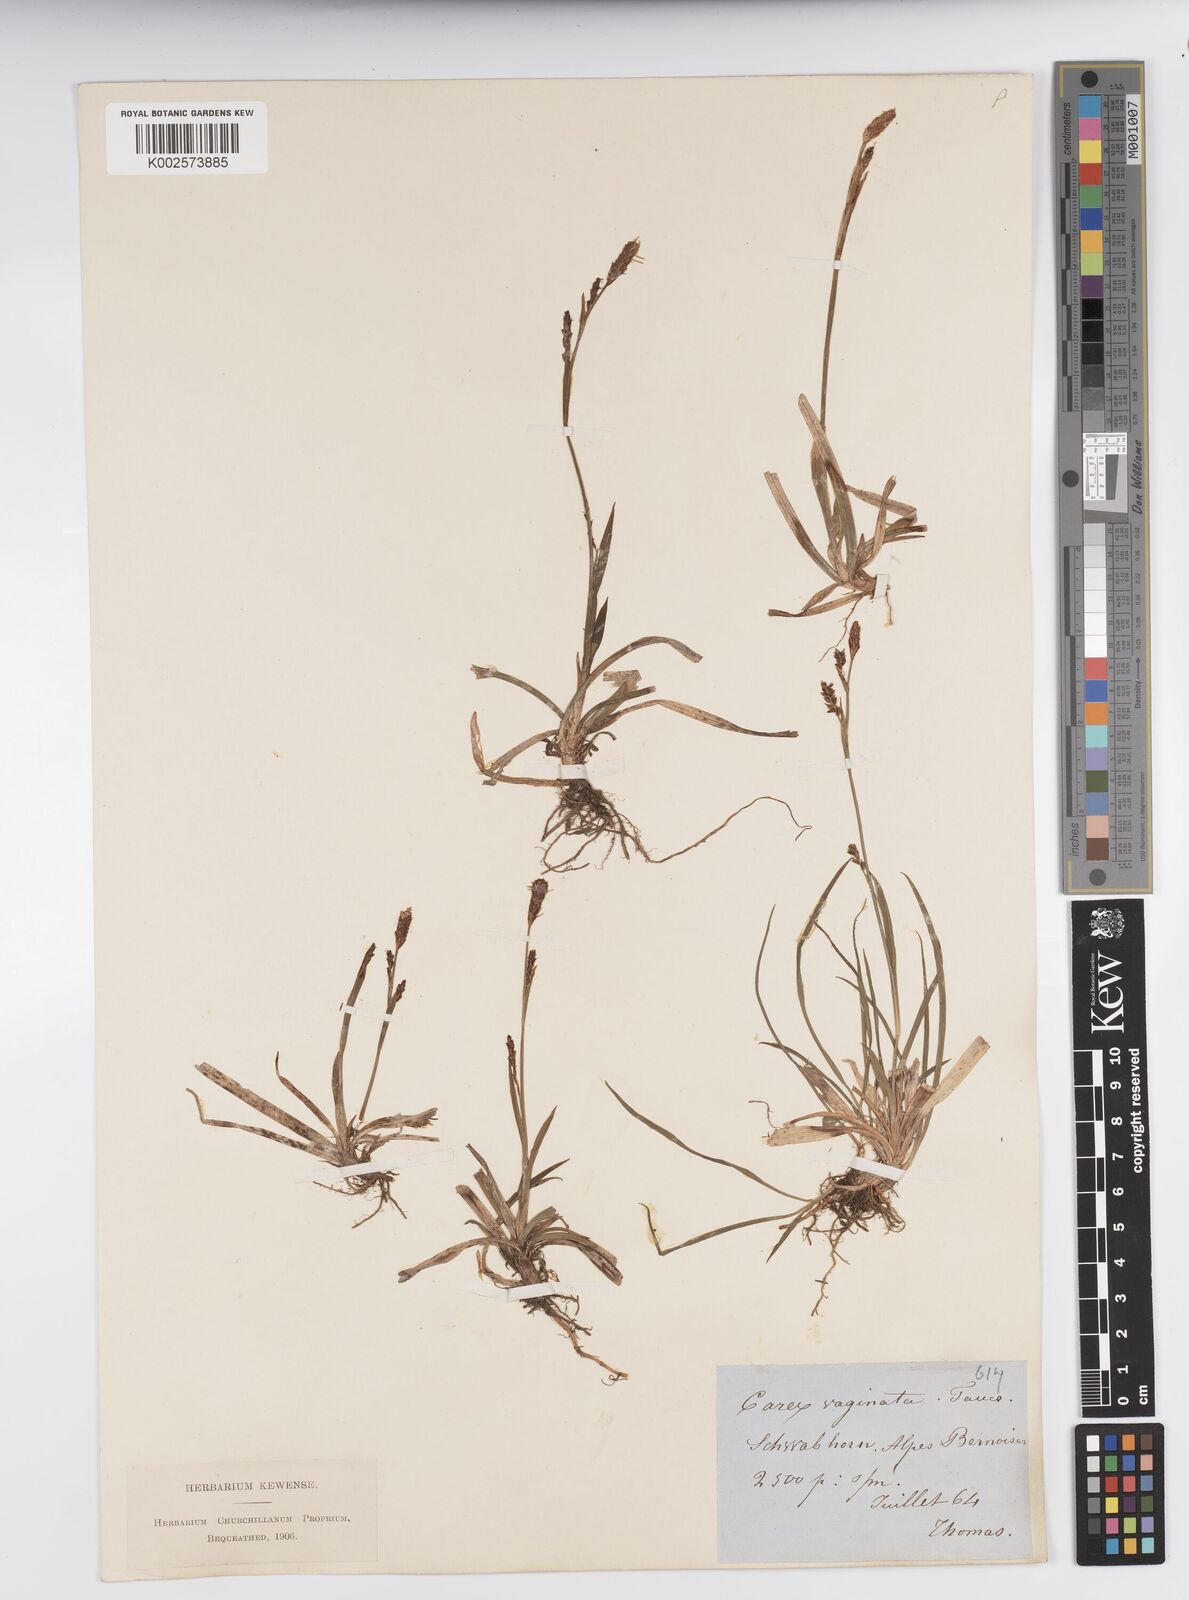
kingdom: Plantae
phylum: Tracheophyta
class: Liliopsida
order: Poales
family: Cyperaceae
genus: Carex
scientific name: Carex vaginata
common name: Sheathed sedge
